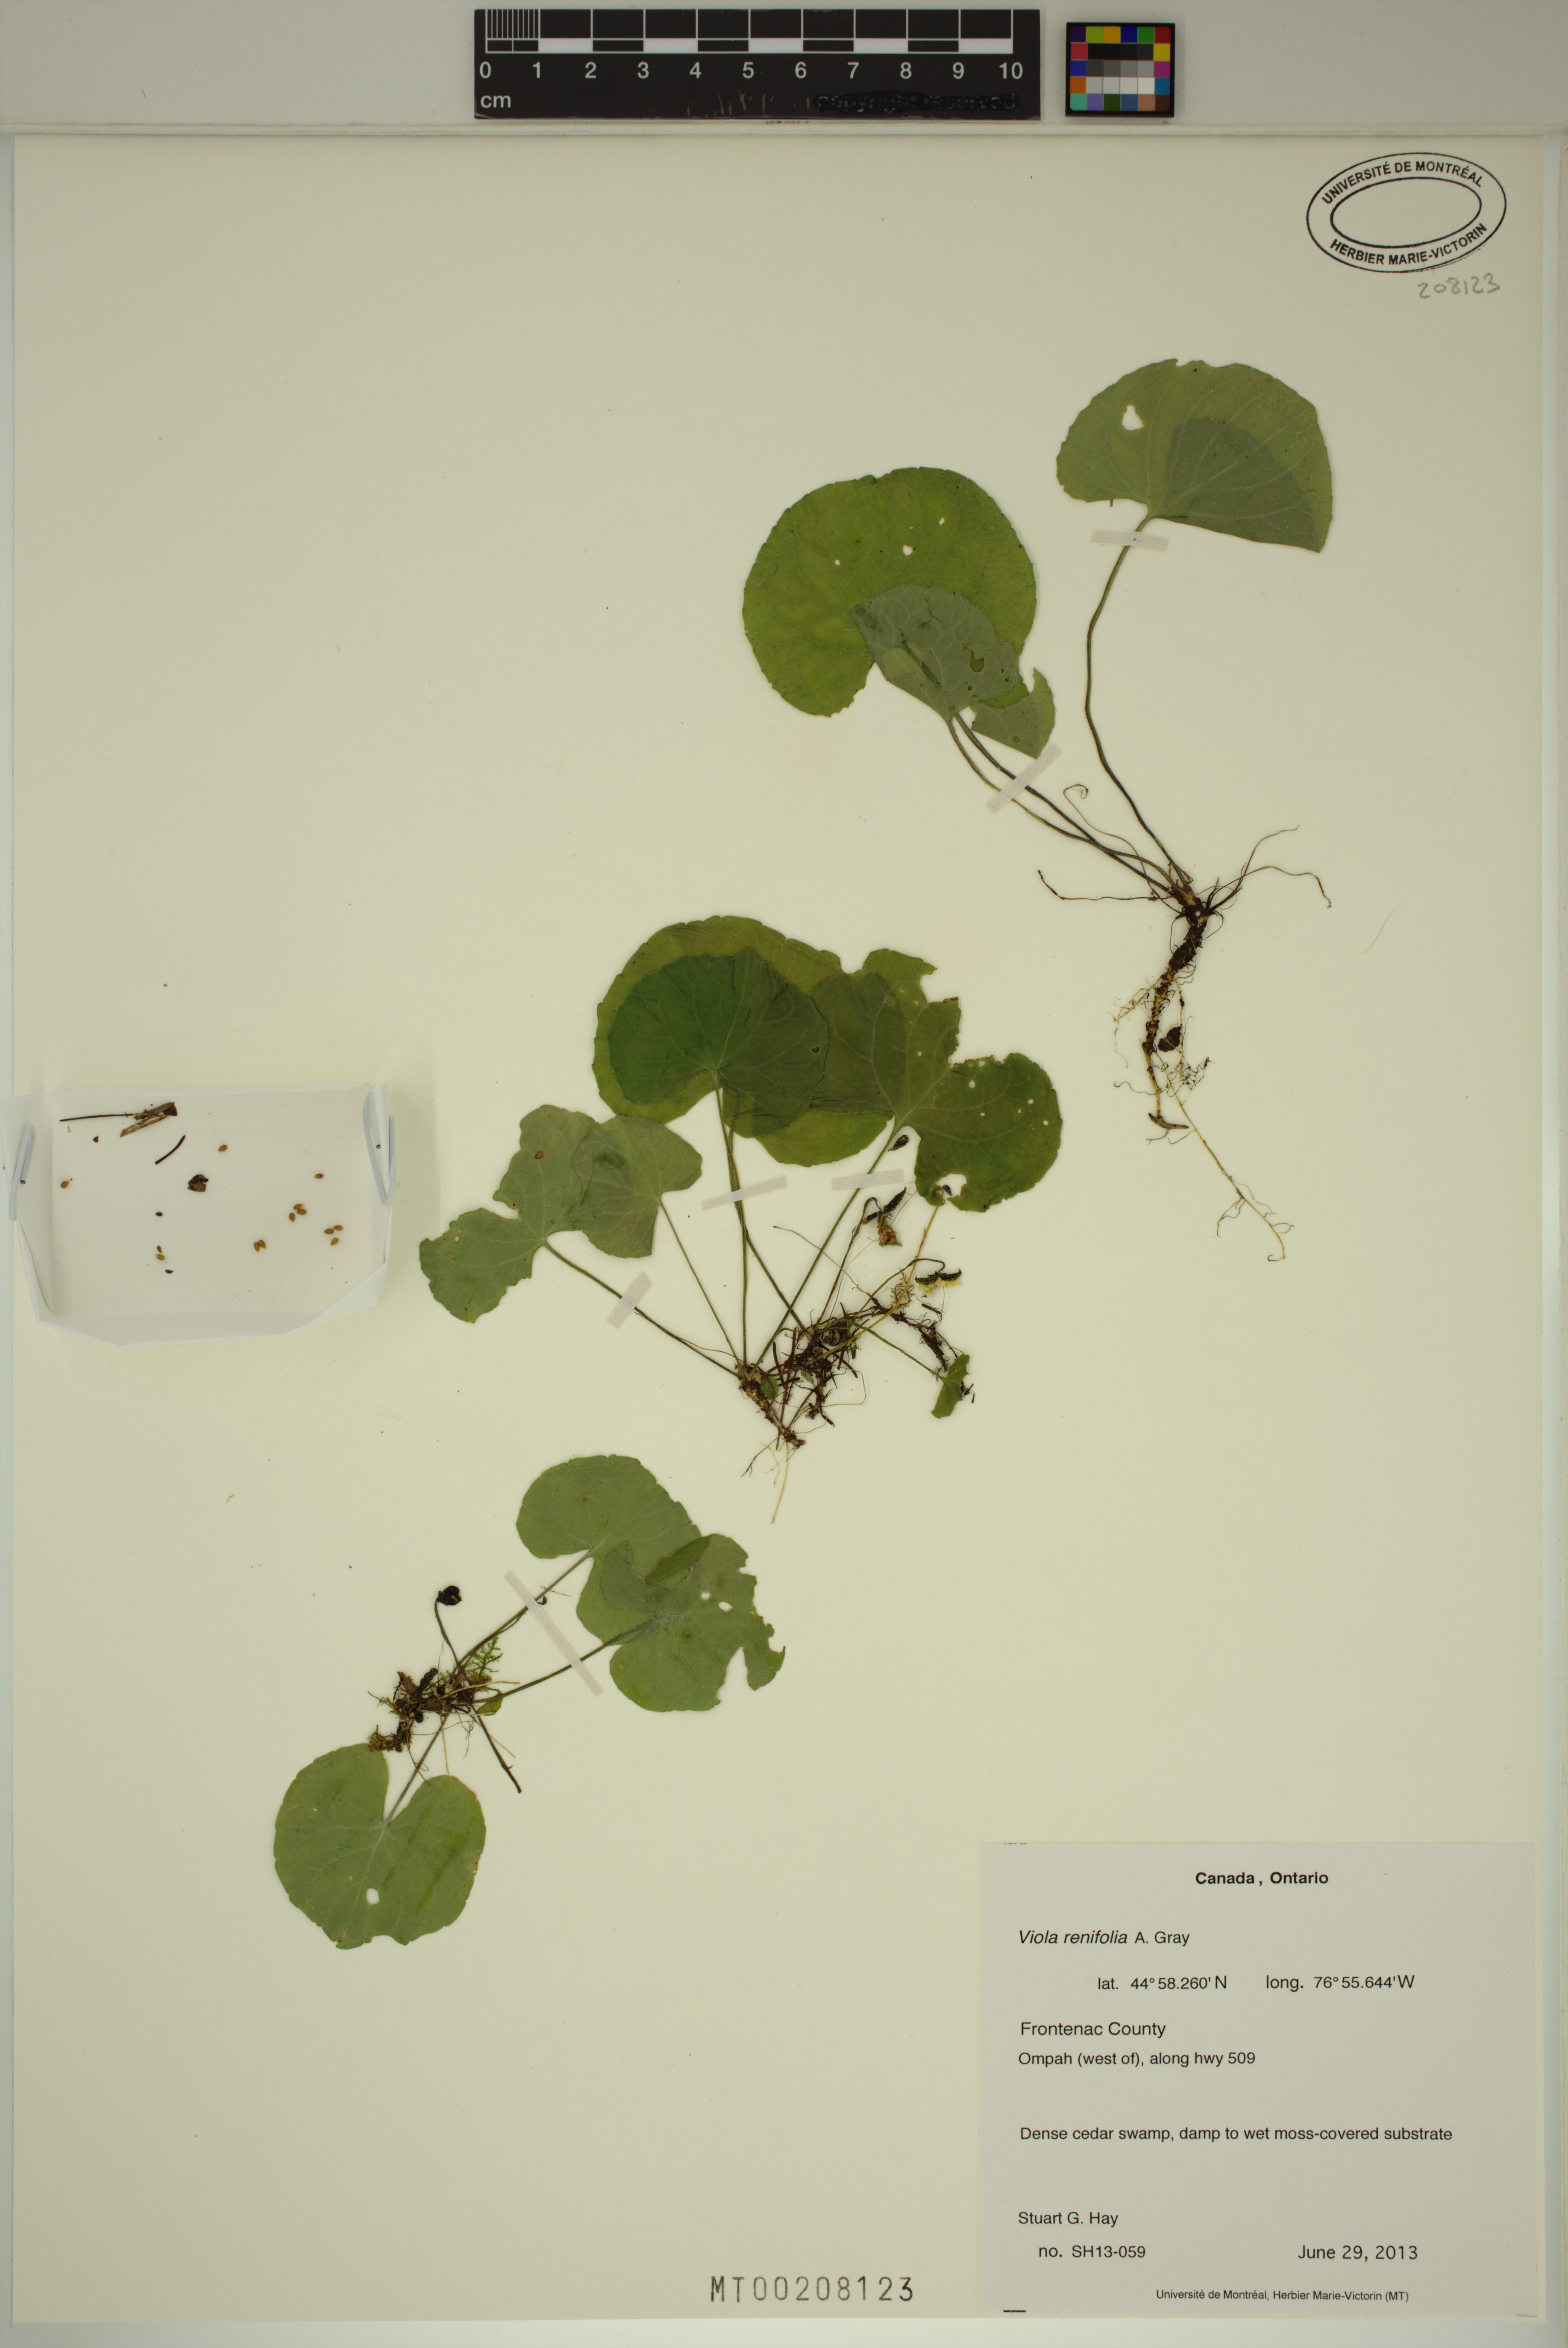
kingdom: Plantae
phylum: Tracheophyta
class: Magnoliopsida
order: Malpighiales
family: Violaceae
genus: Viola
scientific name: Viola renifolia
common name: Kidney-leaf violet
